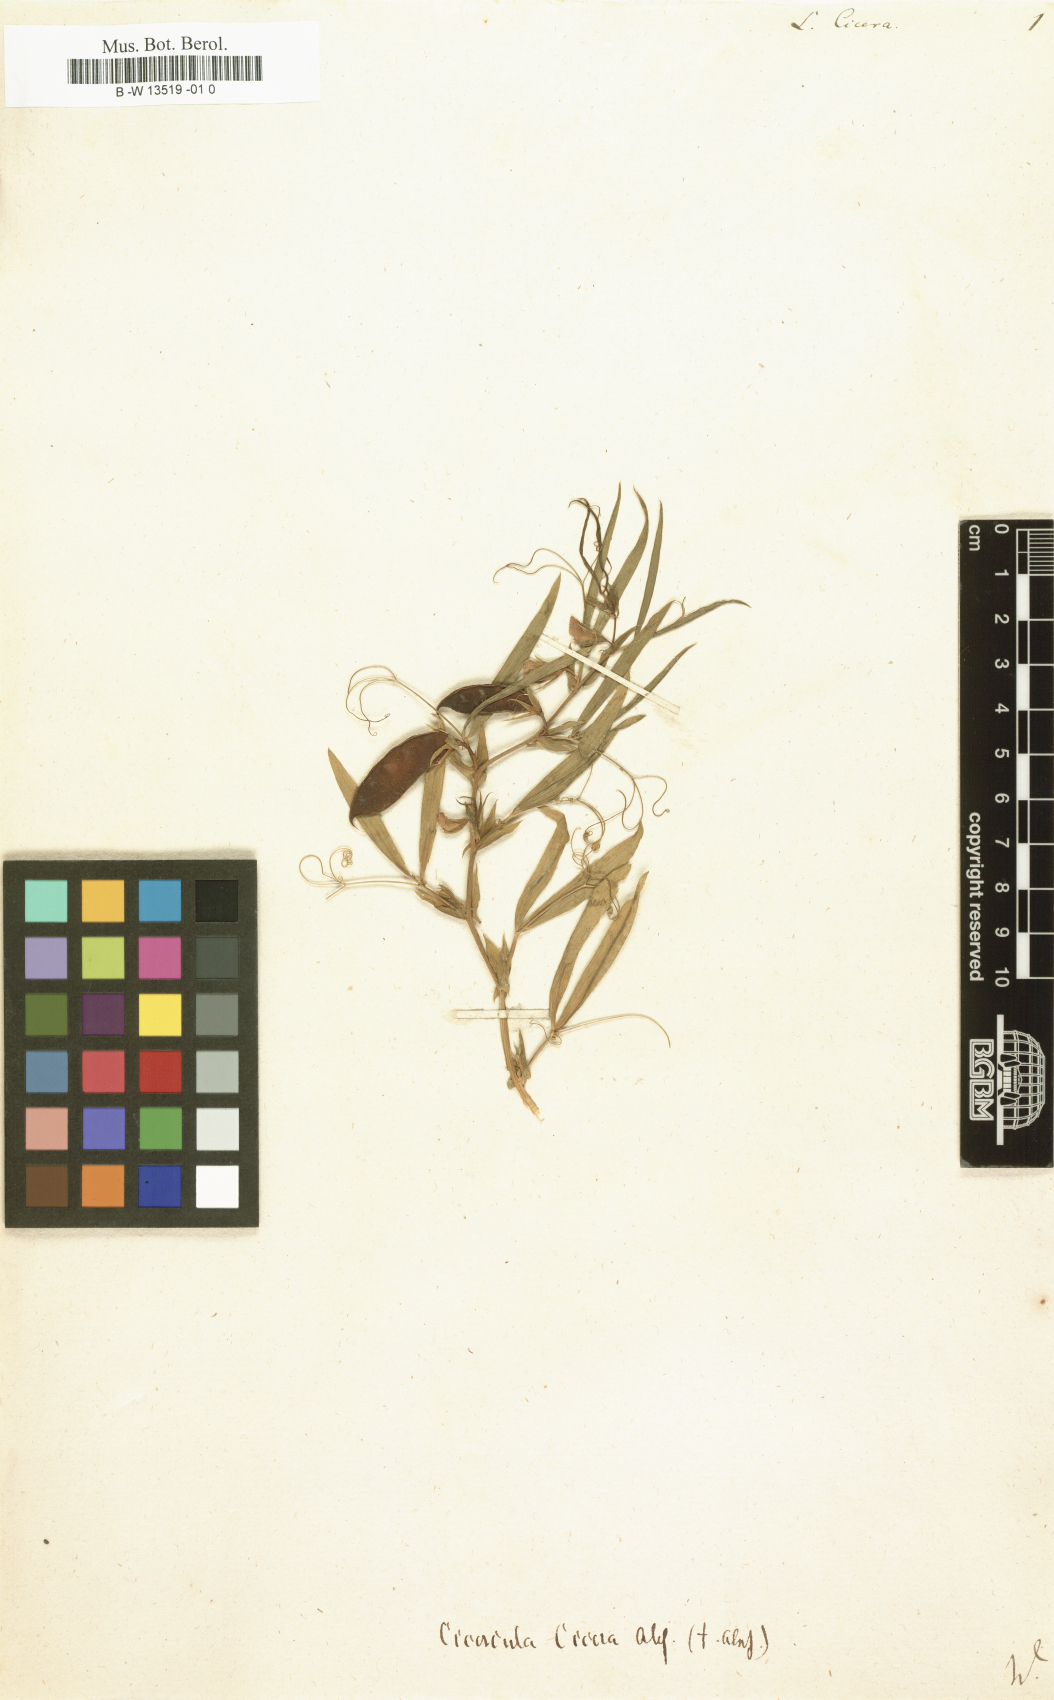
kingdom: Plantae
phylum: Tracheophyta
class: Magnoliopsida
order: Fabales
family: Fabaceae
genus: Lathyrus
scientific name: Lathyrus cicera
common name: Red vetchling
